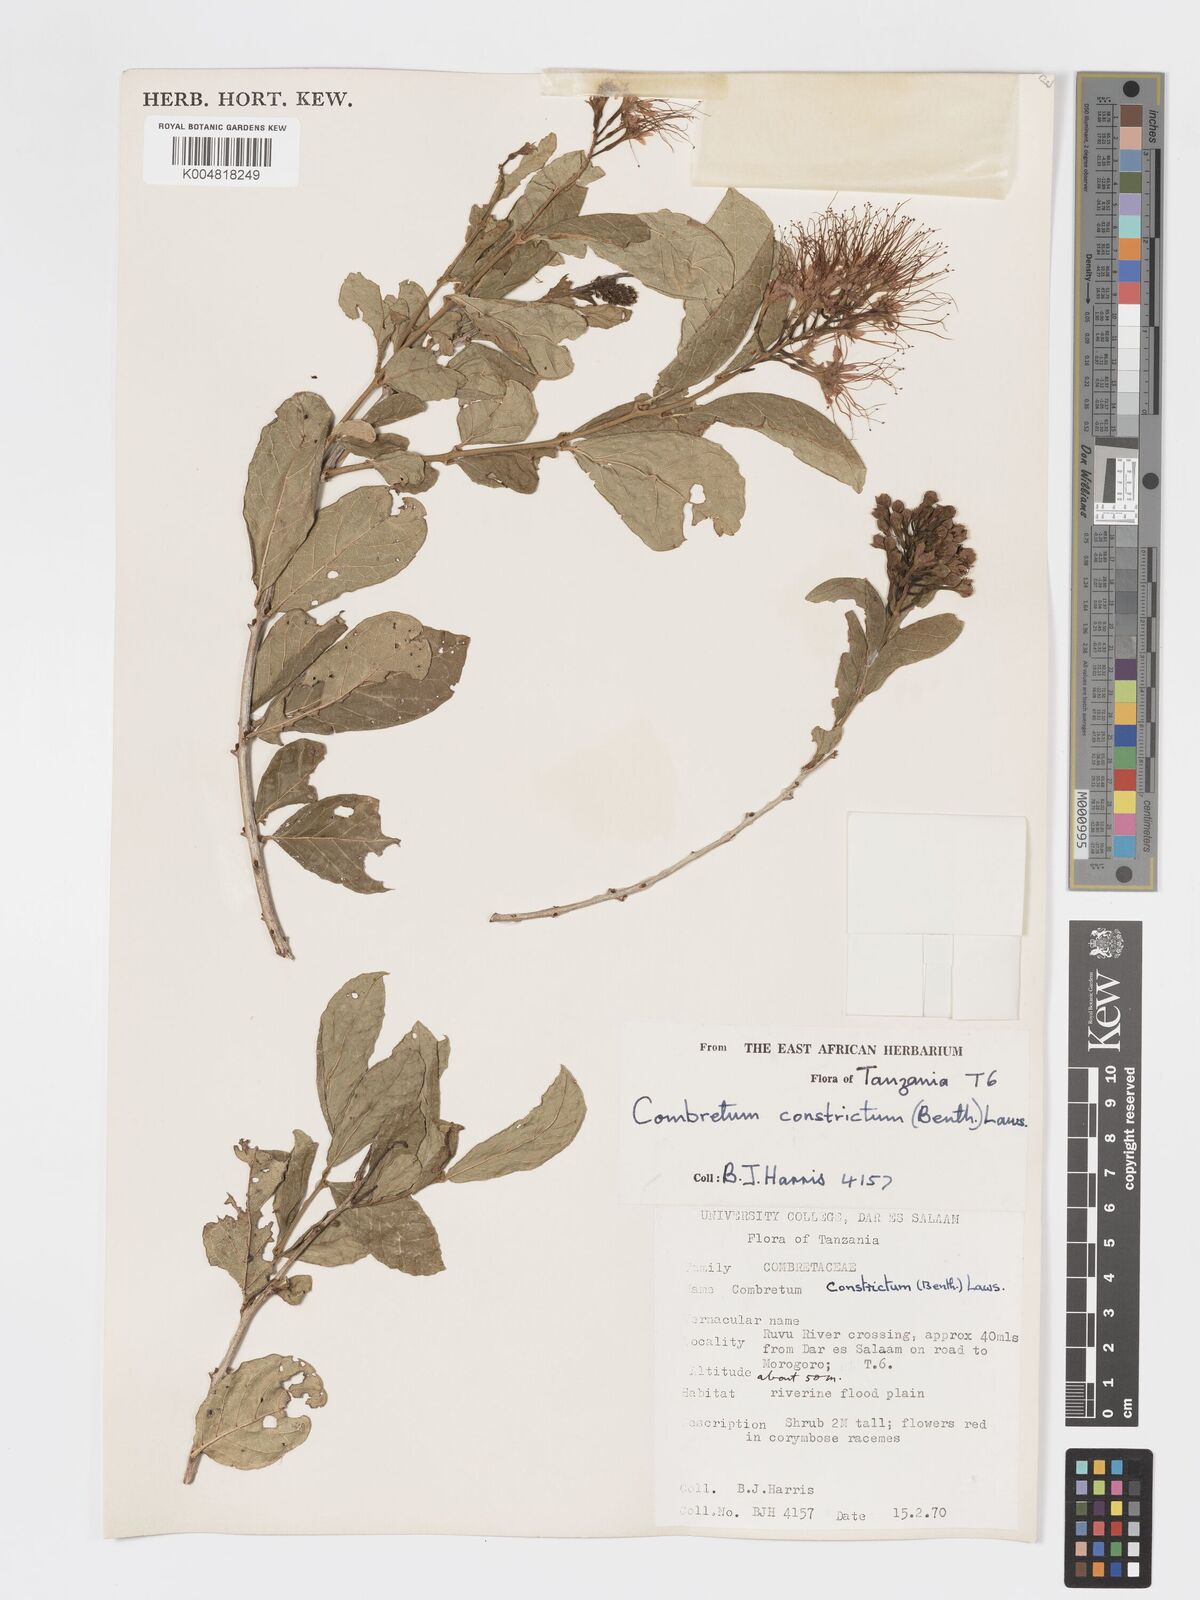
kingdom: Plantae
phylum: Tracheophyta
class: Magnoliopsida
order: Myrtales
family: Combretaceae
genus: Combretum
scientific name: Combretum constrictum
